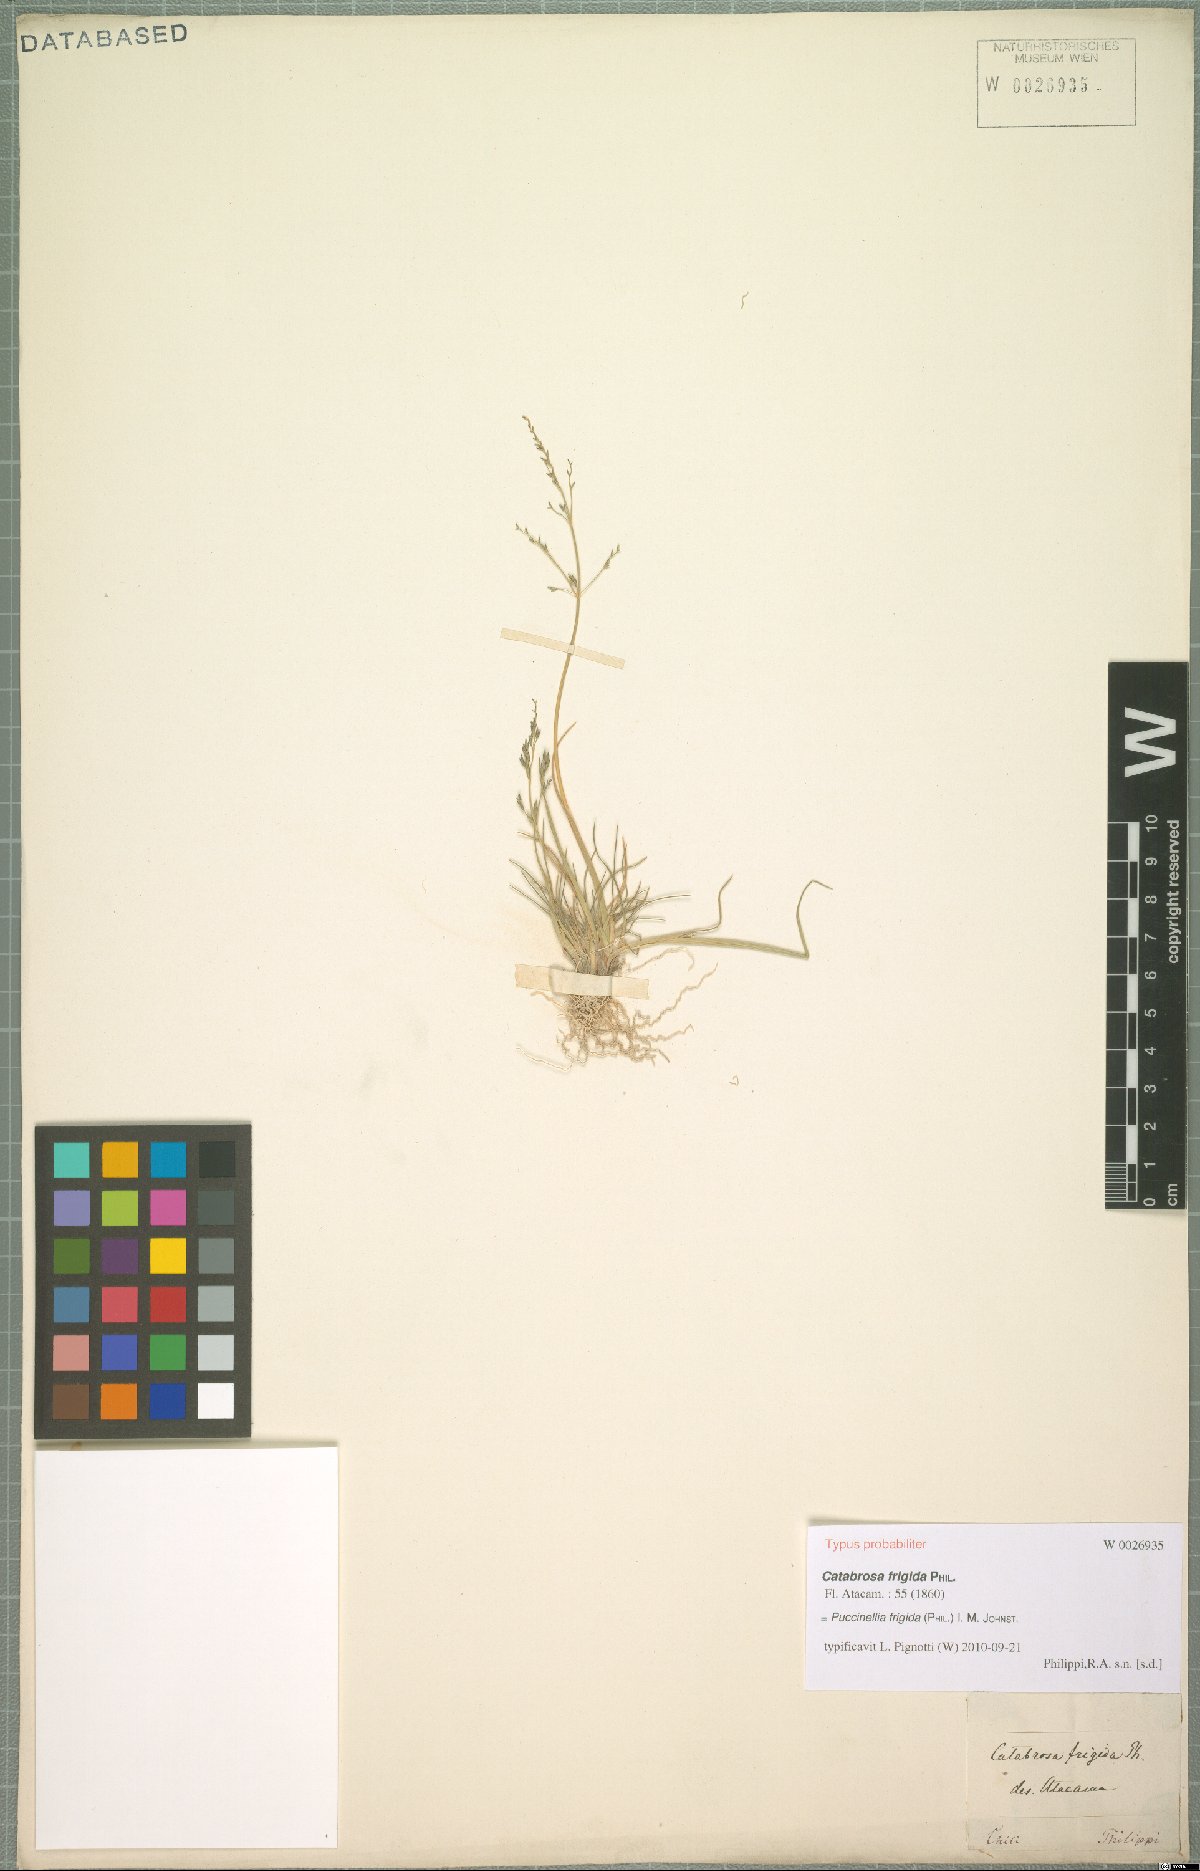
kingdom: Plantae
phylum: Tracheophyta
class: Liliopsida
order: Poales
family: Poaceae
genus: Puccinellia
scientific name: Puccinellia frigida
